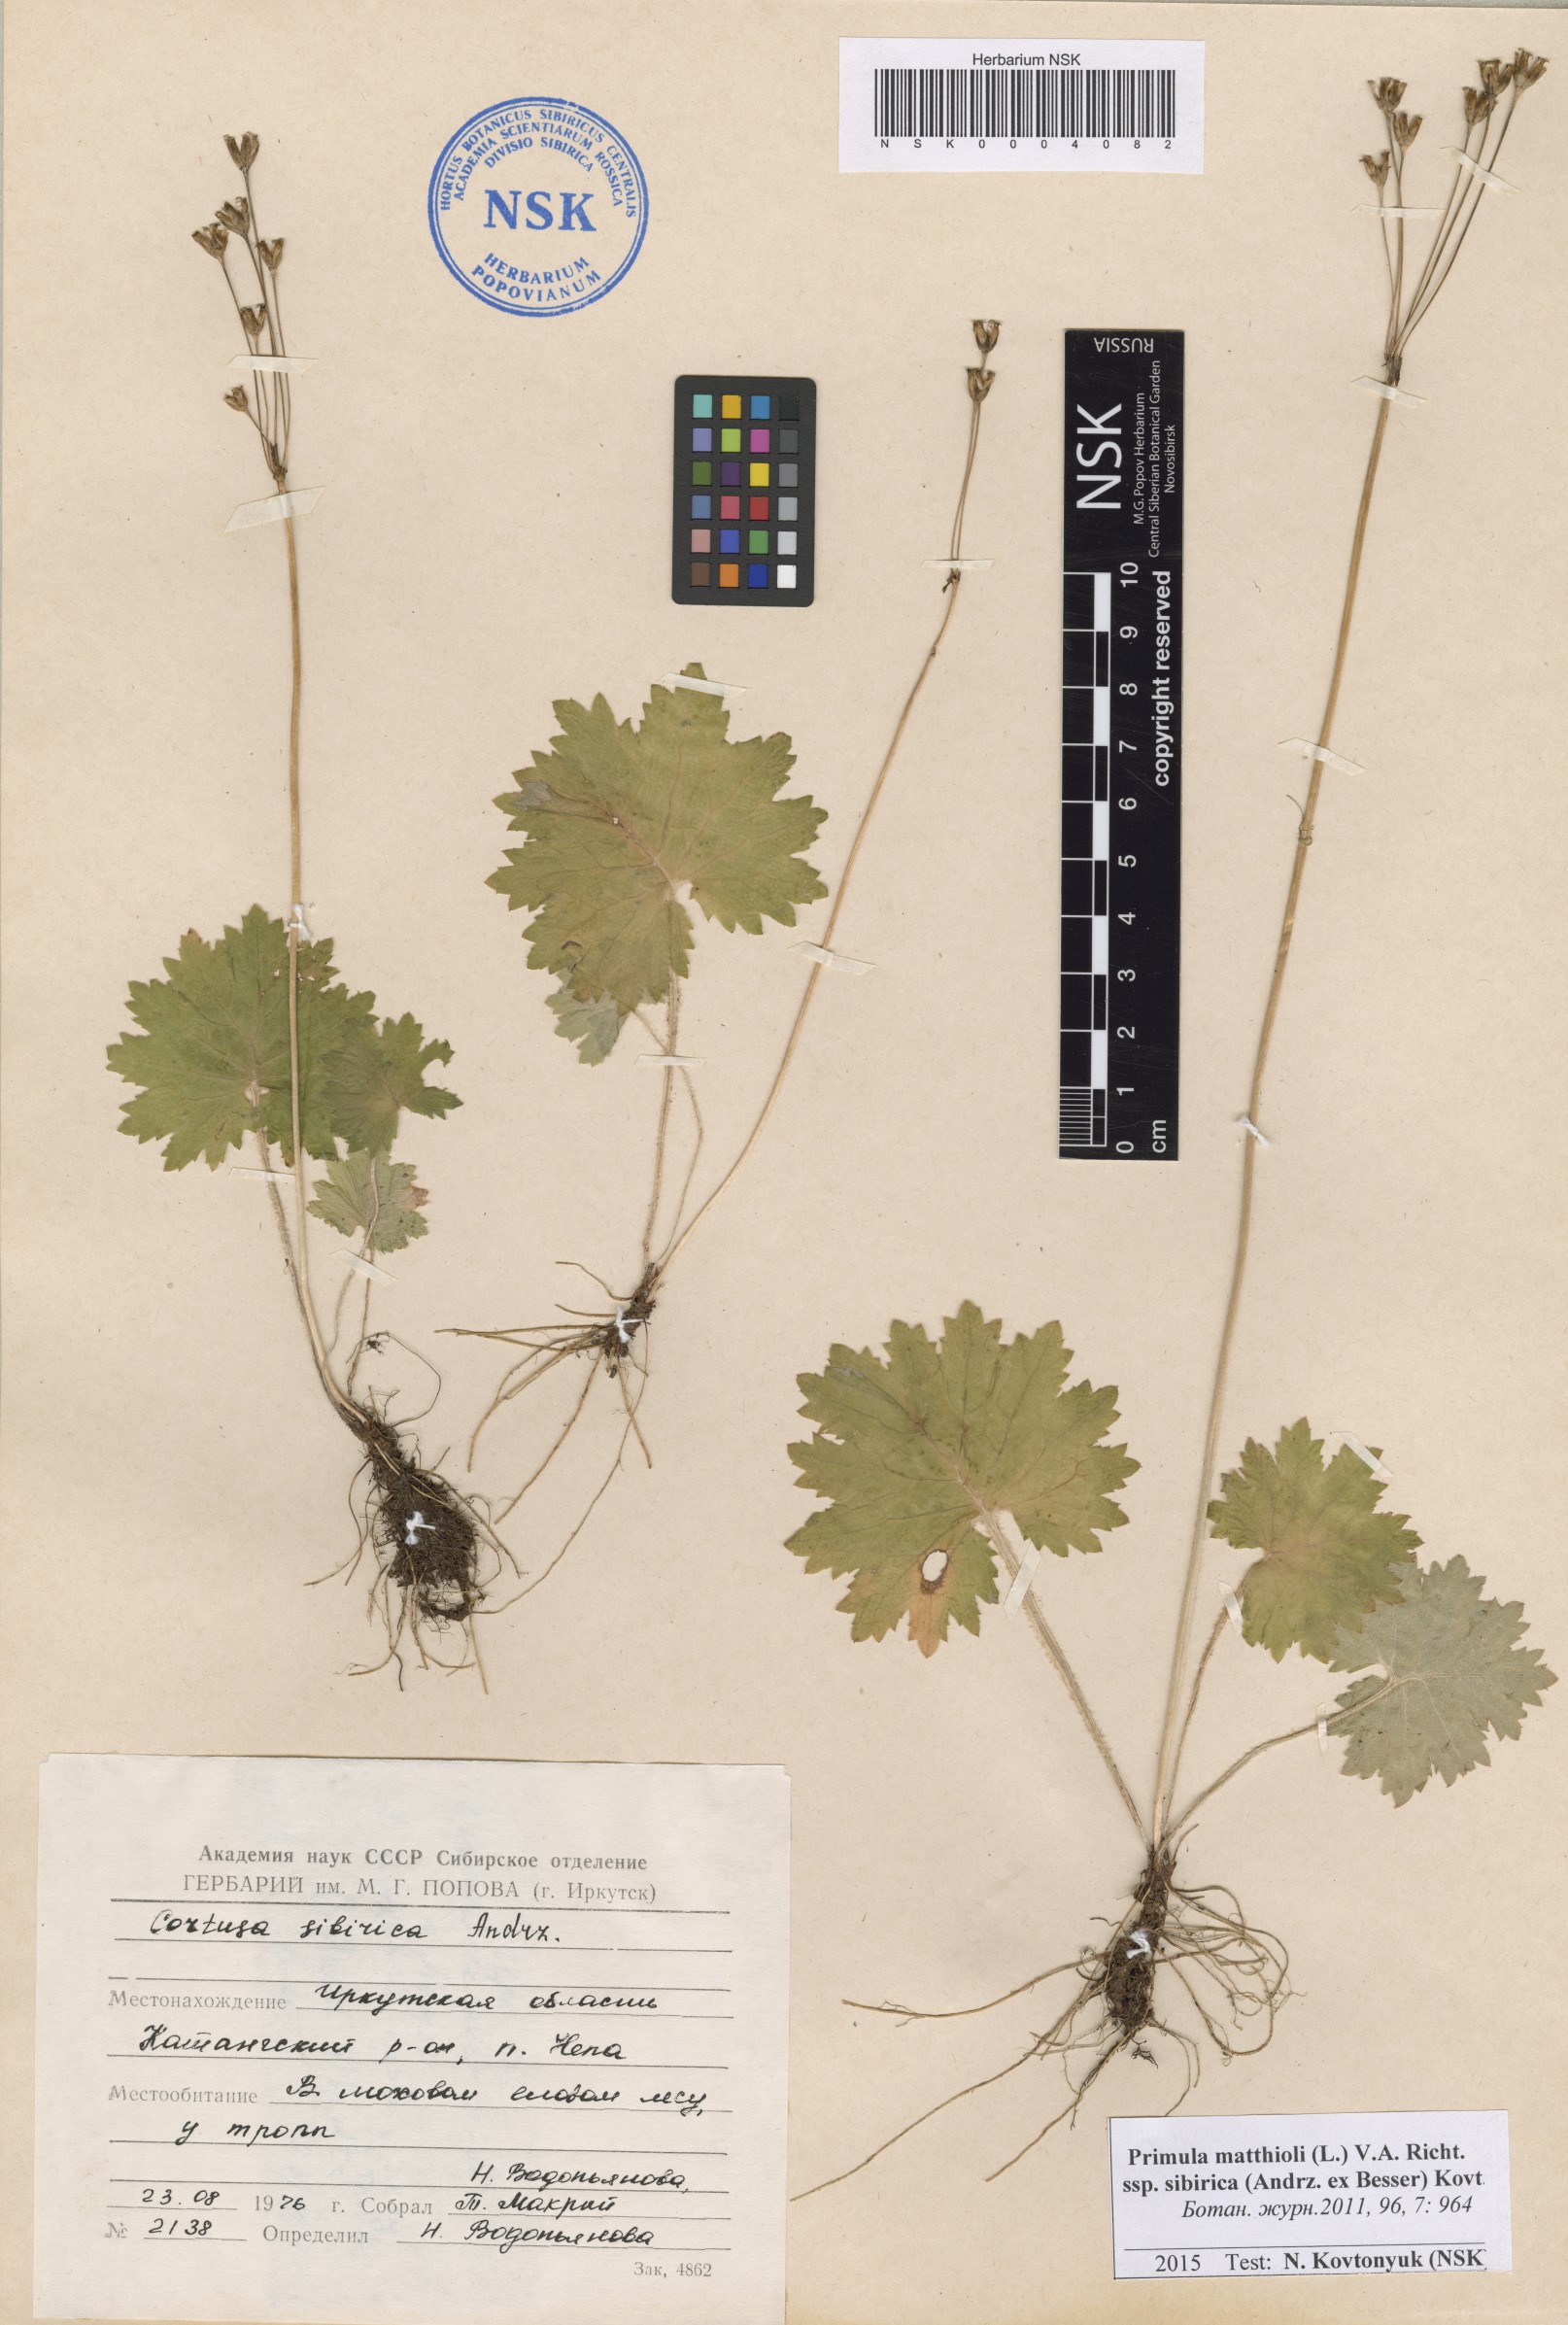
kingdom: Plantae
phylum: Tracheophyta
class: Magnoliopsida
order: Ericales
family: Primulaceae
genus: Primula
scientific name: Primula matthioli
